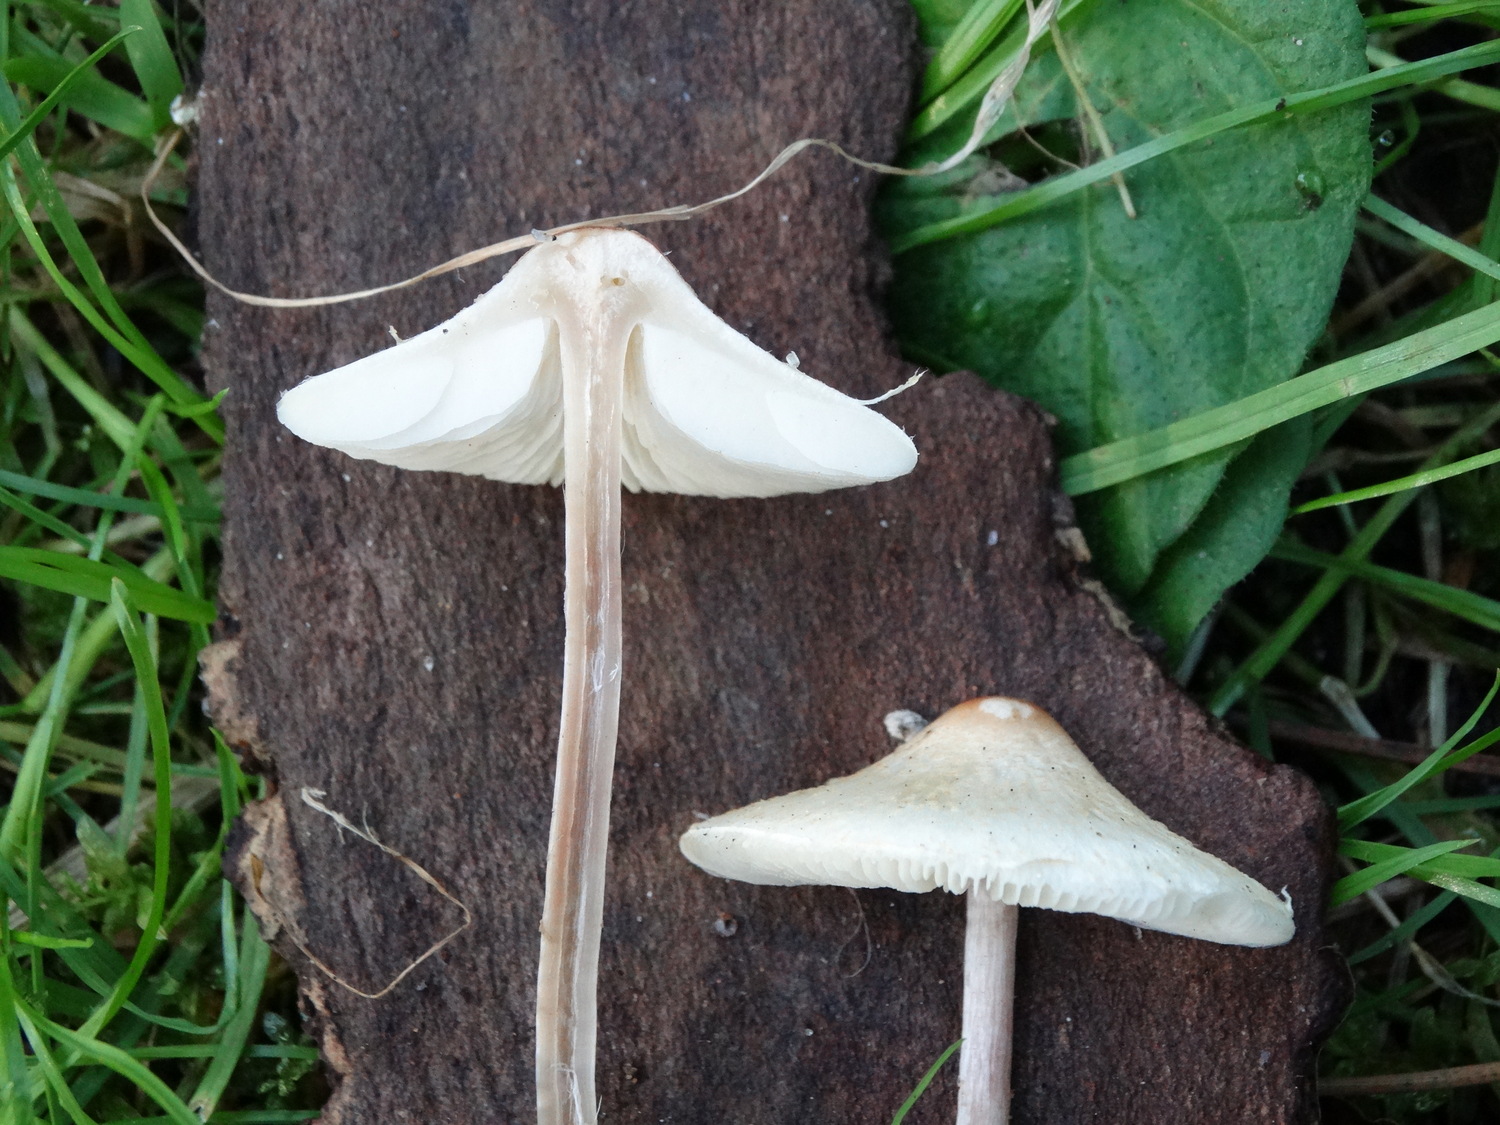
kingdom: Fungi
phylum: Basidiomycota
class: Agaricomycetes
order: Agaricales
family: Agaricaceae
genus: Lepiota
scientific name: Lepiota cristata
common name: stinkende parasolhat
